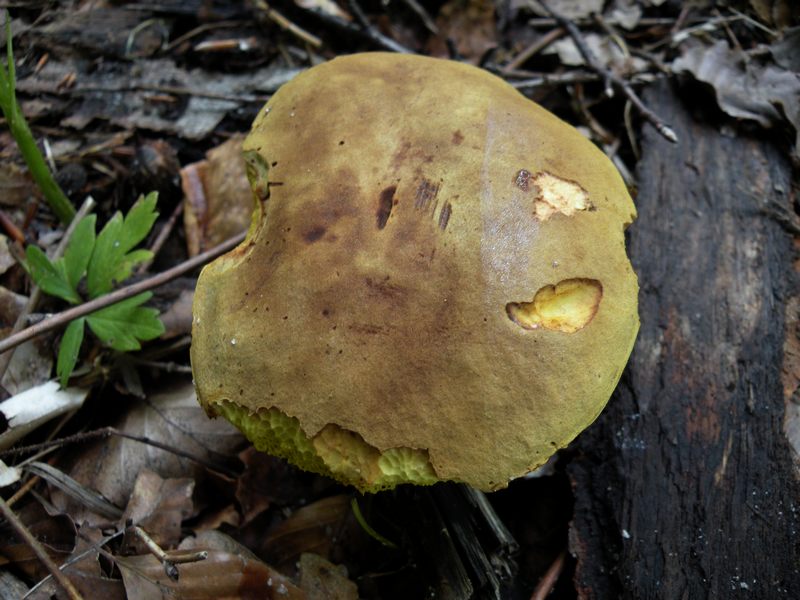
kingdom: Fungi
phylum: Basidiomycota
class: Agaricomycetes
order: Boletales
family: Boletaceae
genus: Xerocomus
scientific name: Xerocomus ferrugineus
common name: vaskeskinds-rørhat
